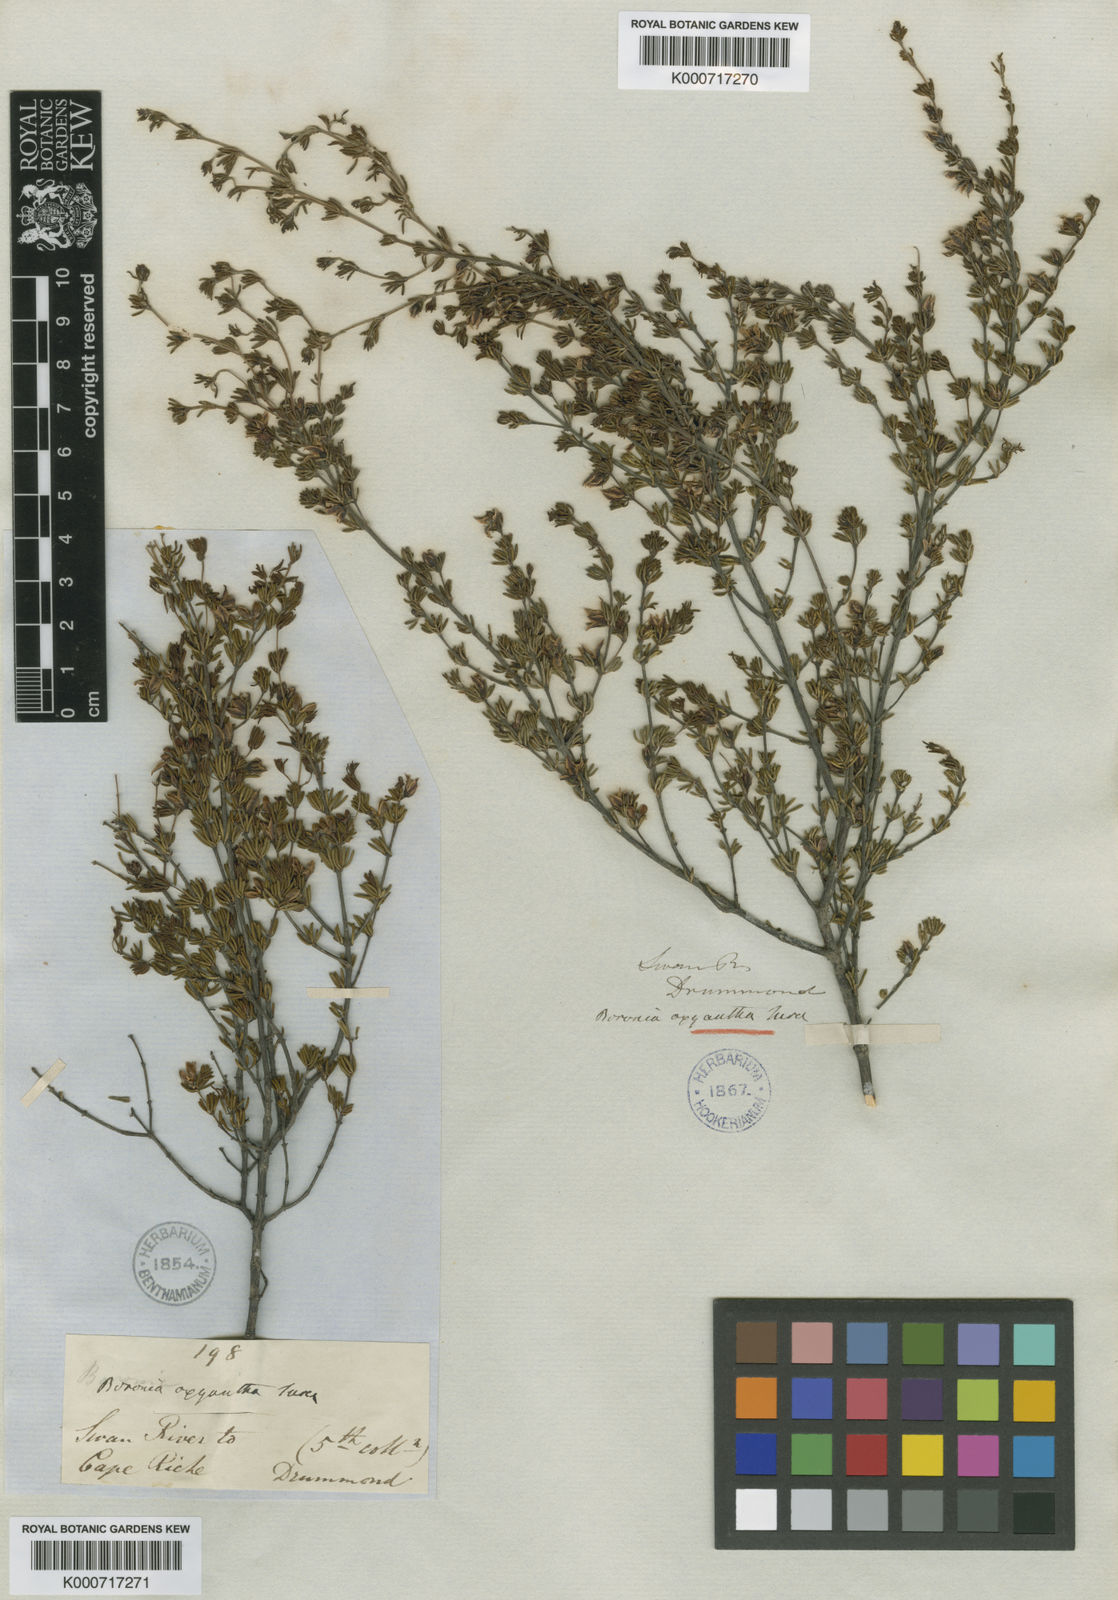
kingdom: Plantae
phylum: Tracheophyta
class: Magnoliopsida
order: Sapindales
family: Rutaceae
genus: Boronia
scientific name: Boronia oxyantha
